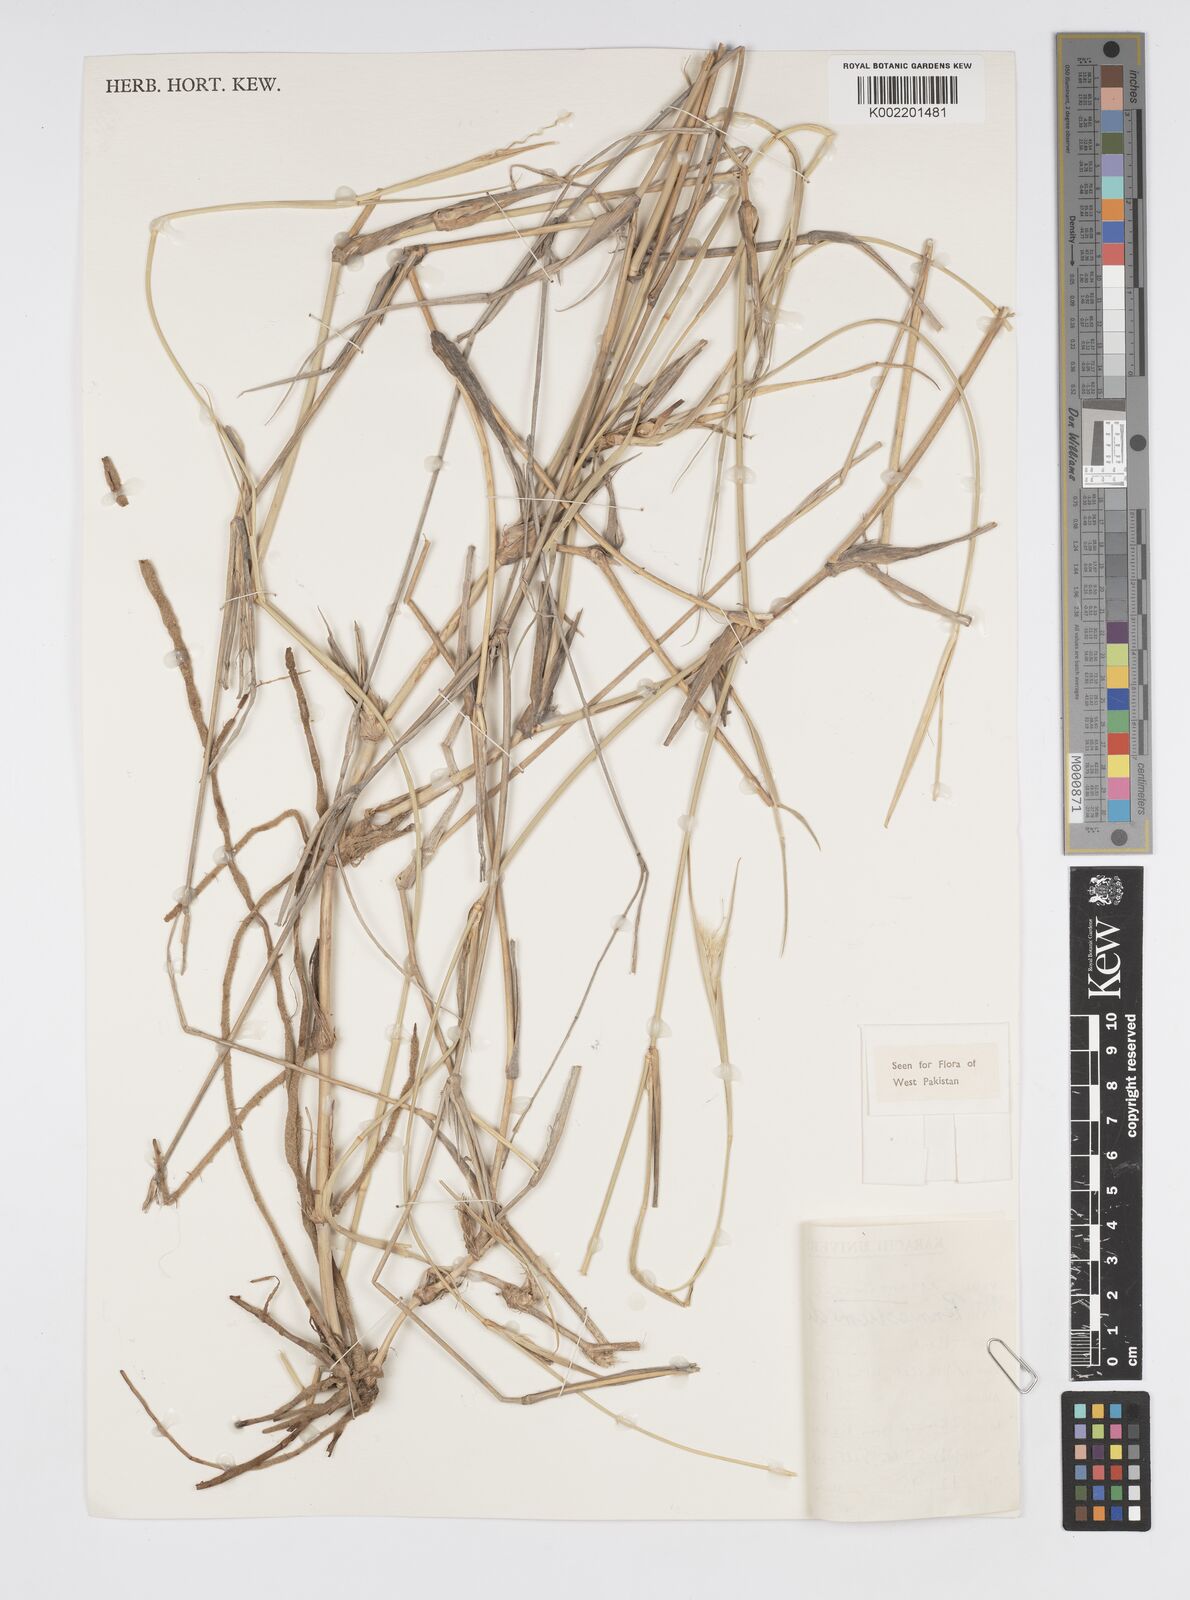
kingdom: Plantae
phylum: Tracheophyta
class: Liliopsida
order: Poales
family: Poaceae
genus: Cenchrus
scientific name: Cenchrus divisus
